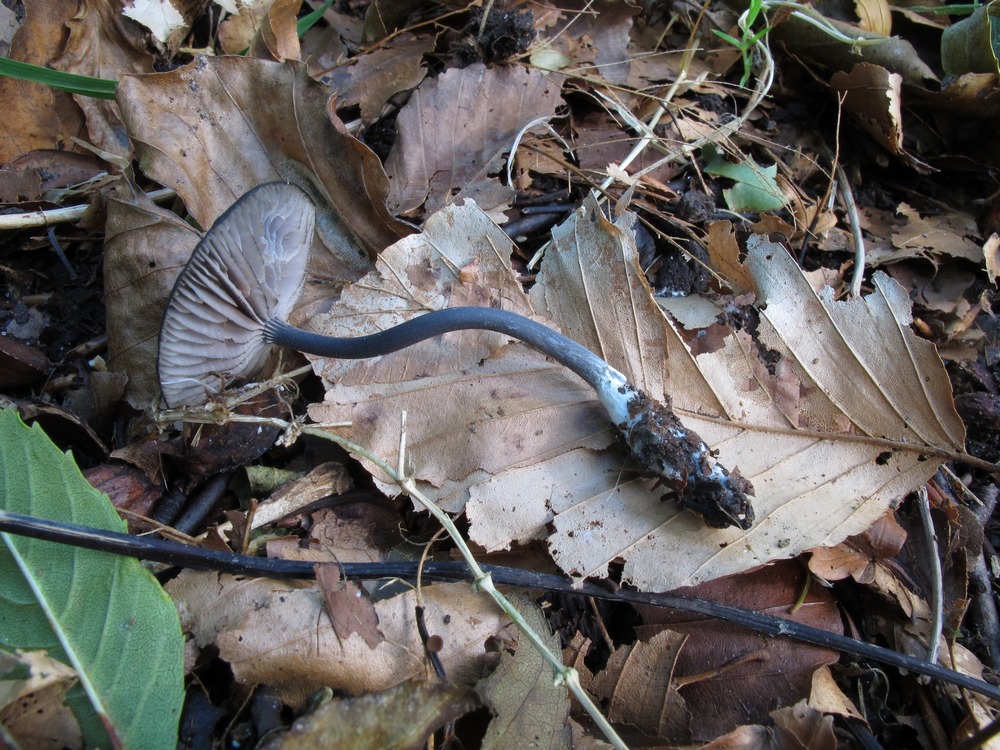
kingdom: Fungi
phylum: Basidiomycota
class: Agaricomycetes
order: Agaricales
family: Entolomataceae
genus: Entoloma
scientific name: Entoloma
